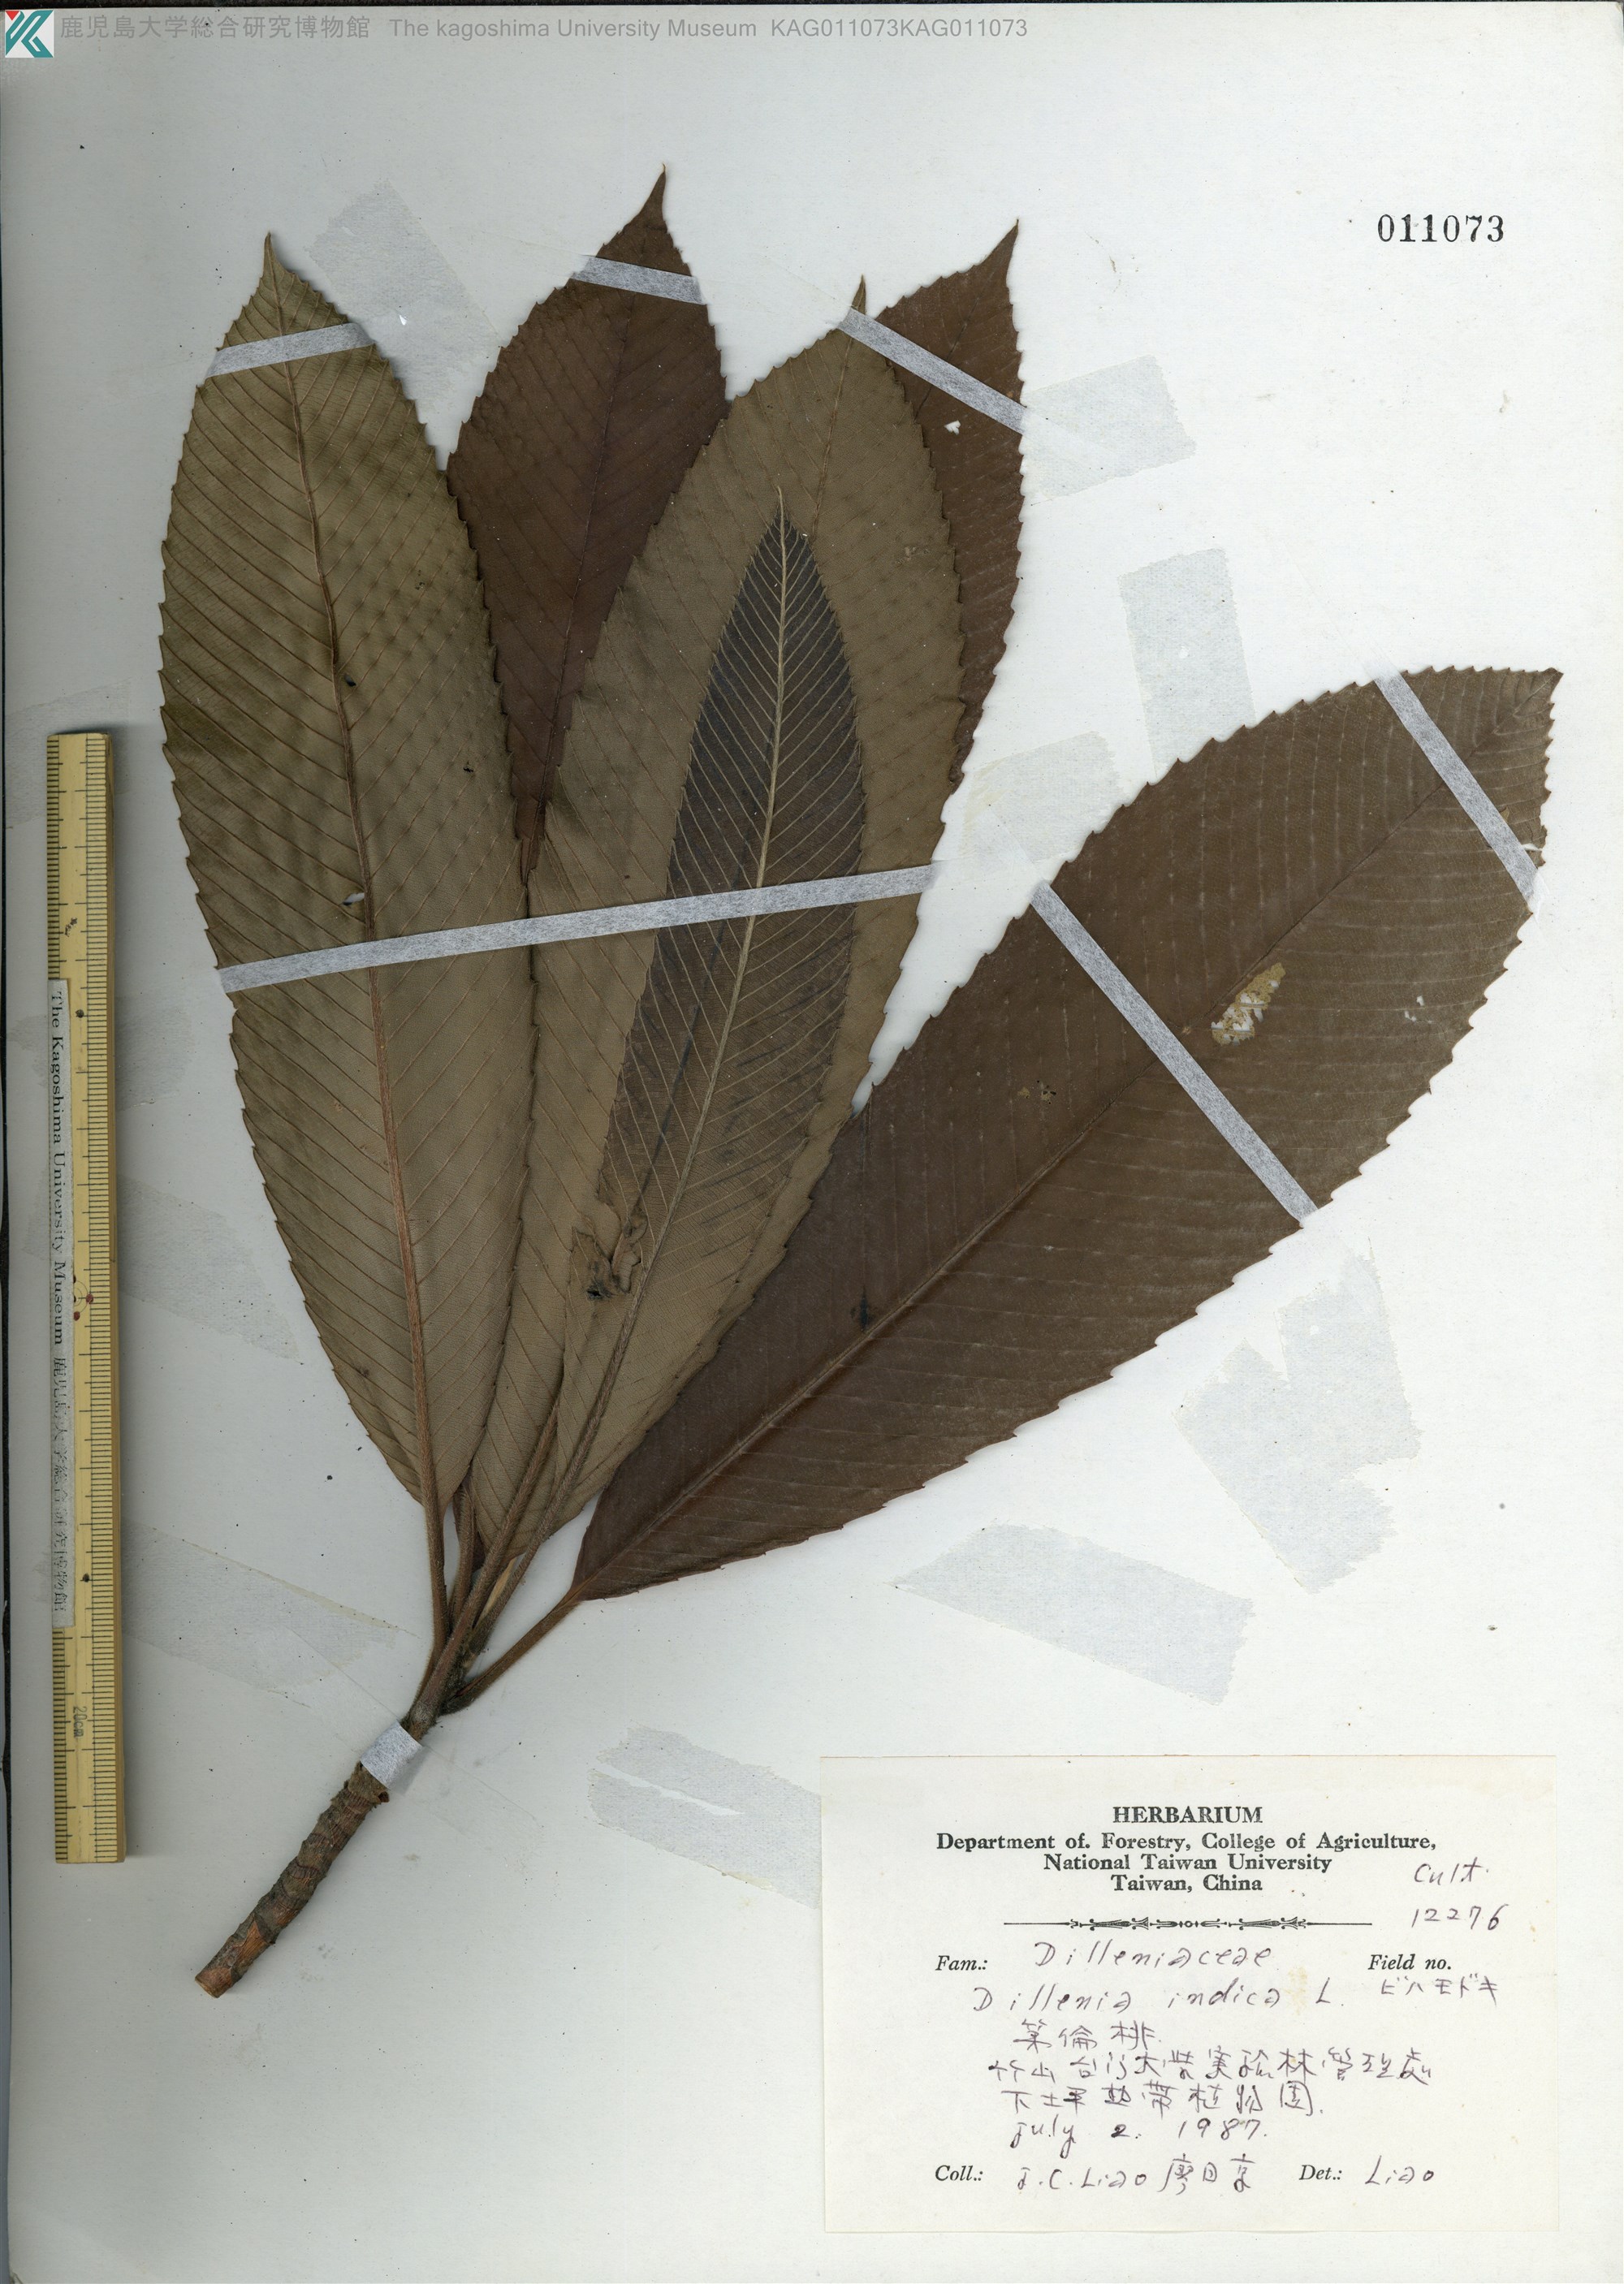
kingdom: Plantae
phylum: Tracheophyta
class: Magnoliopsida
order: Dilleniales
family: Dilleniaceae
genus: Dillenia
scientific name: Dillenia indica
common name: Elephant apple
